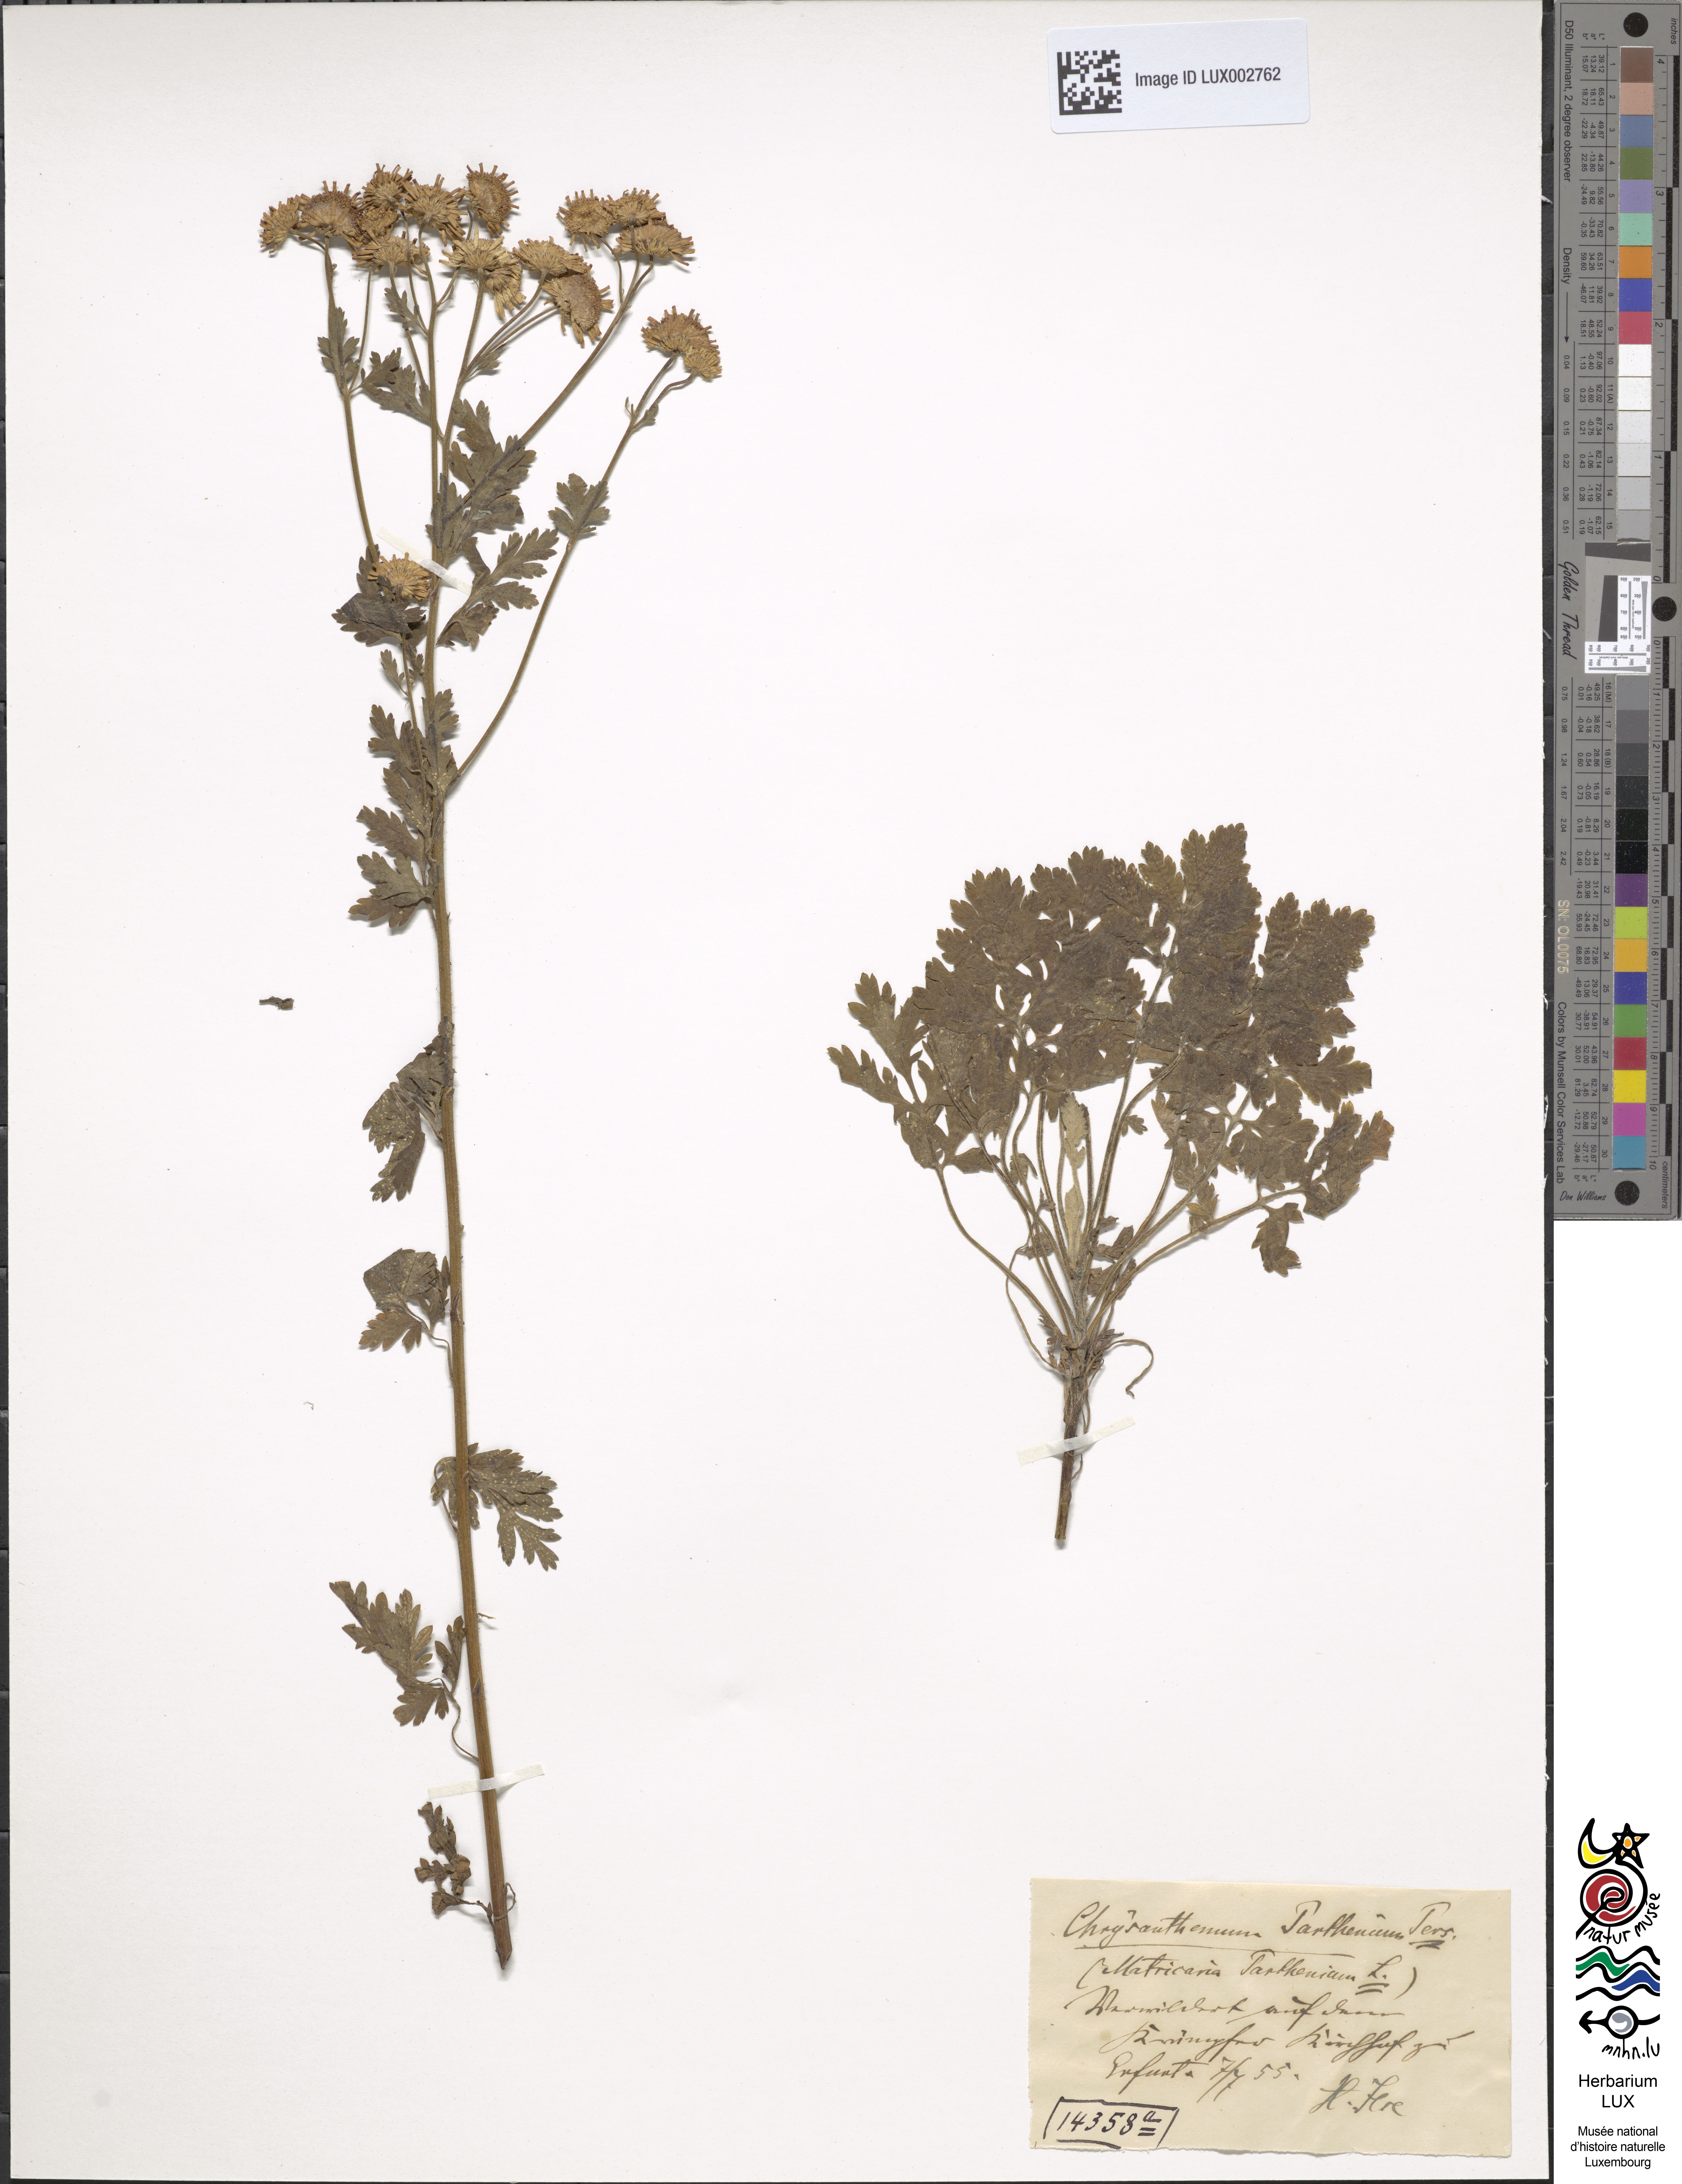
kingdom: Plantae
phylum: Tracheophyta
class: Magnoliopsida
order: Asterales
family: Asteraceae
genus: Leucanthemum
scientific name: Leucanthemum heterophyllum
